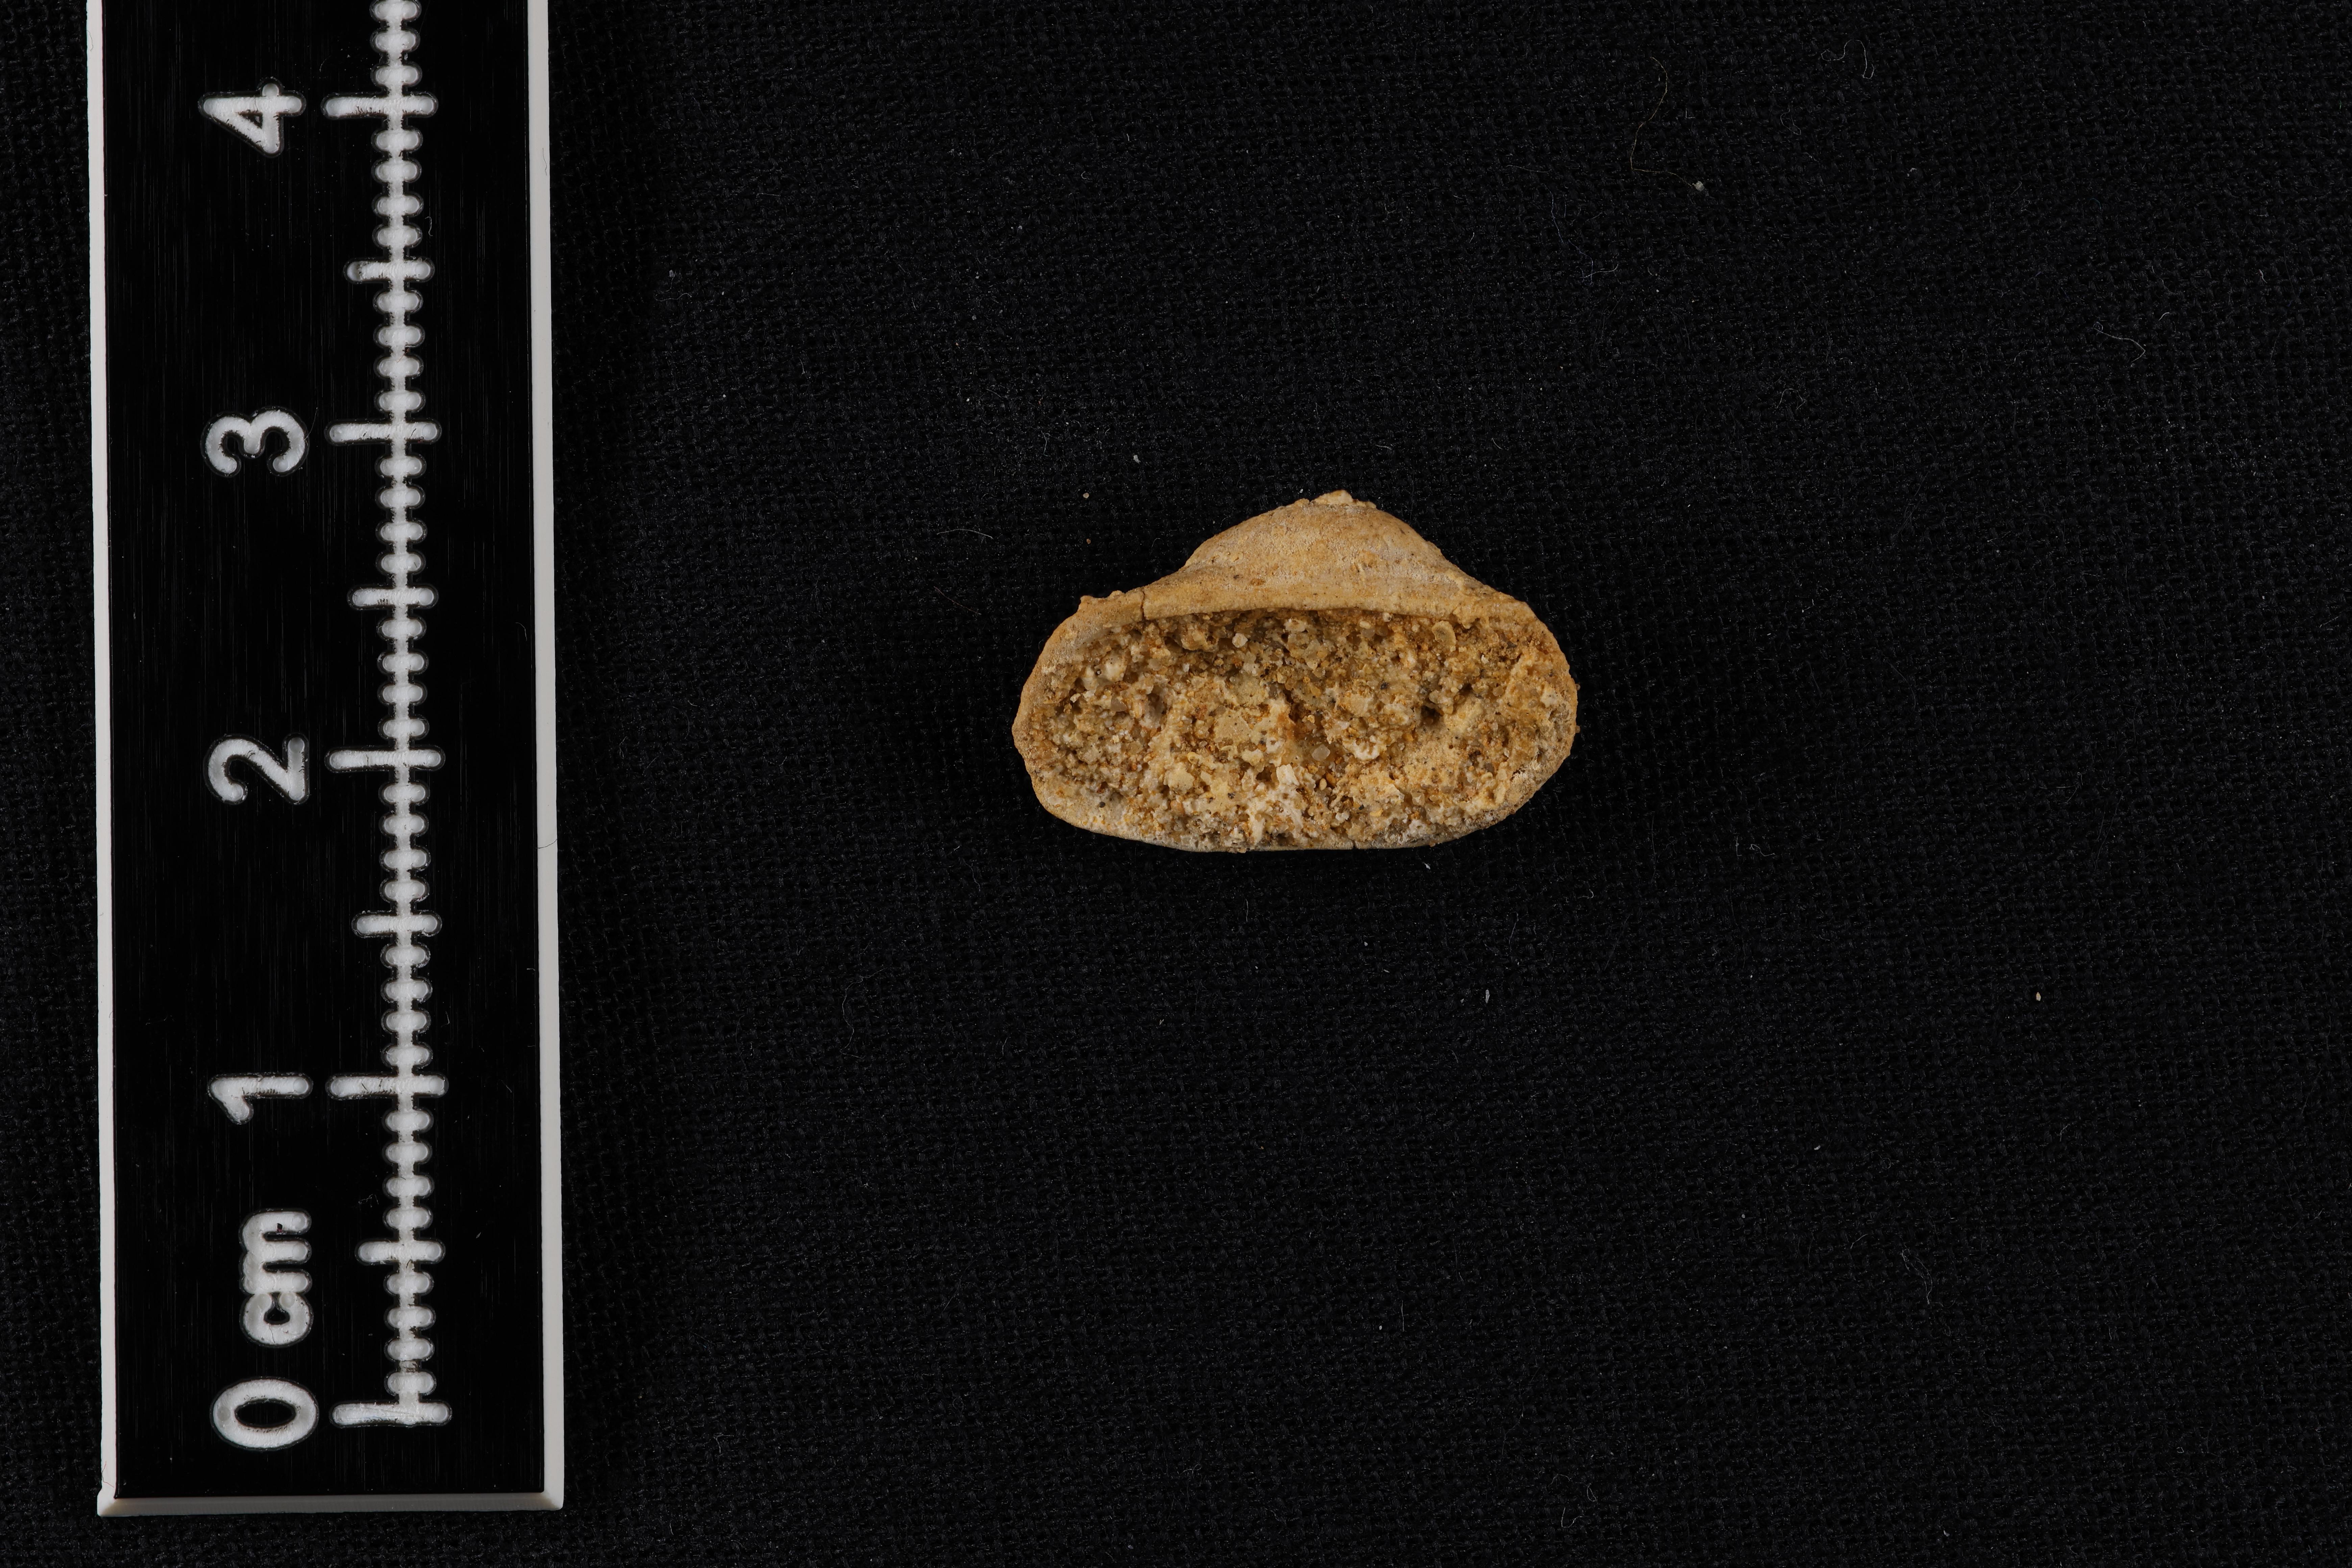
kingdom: Animalia
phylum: Mollusca
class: Bivalvia
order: Arcida
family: Cucullaeidae
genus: Idonearca
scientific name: Idonearca
